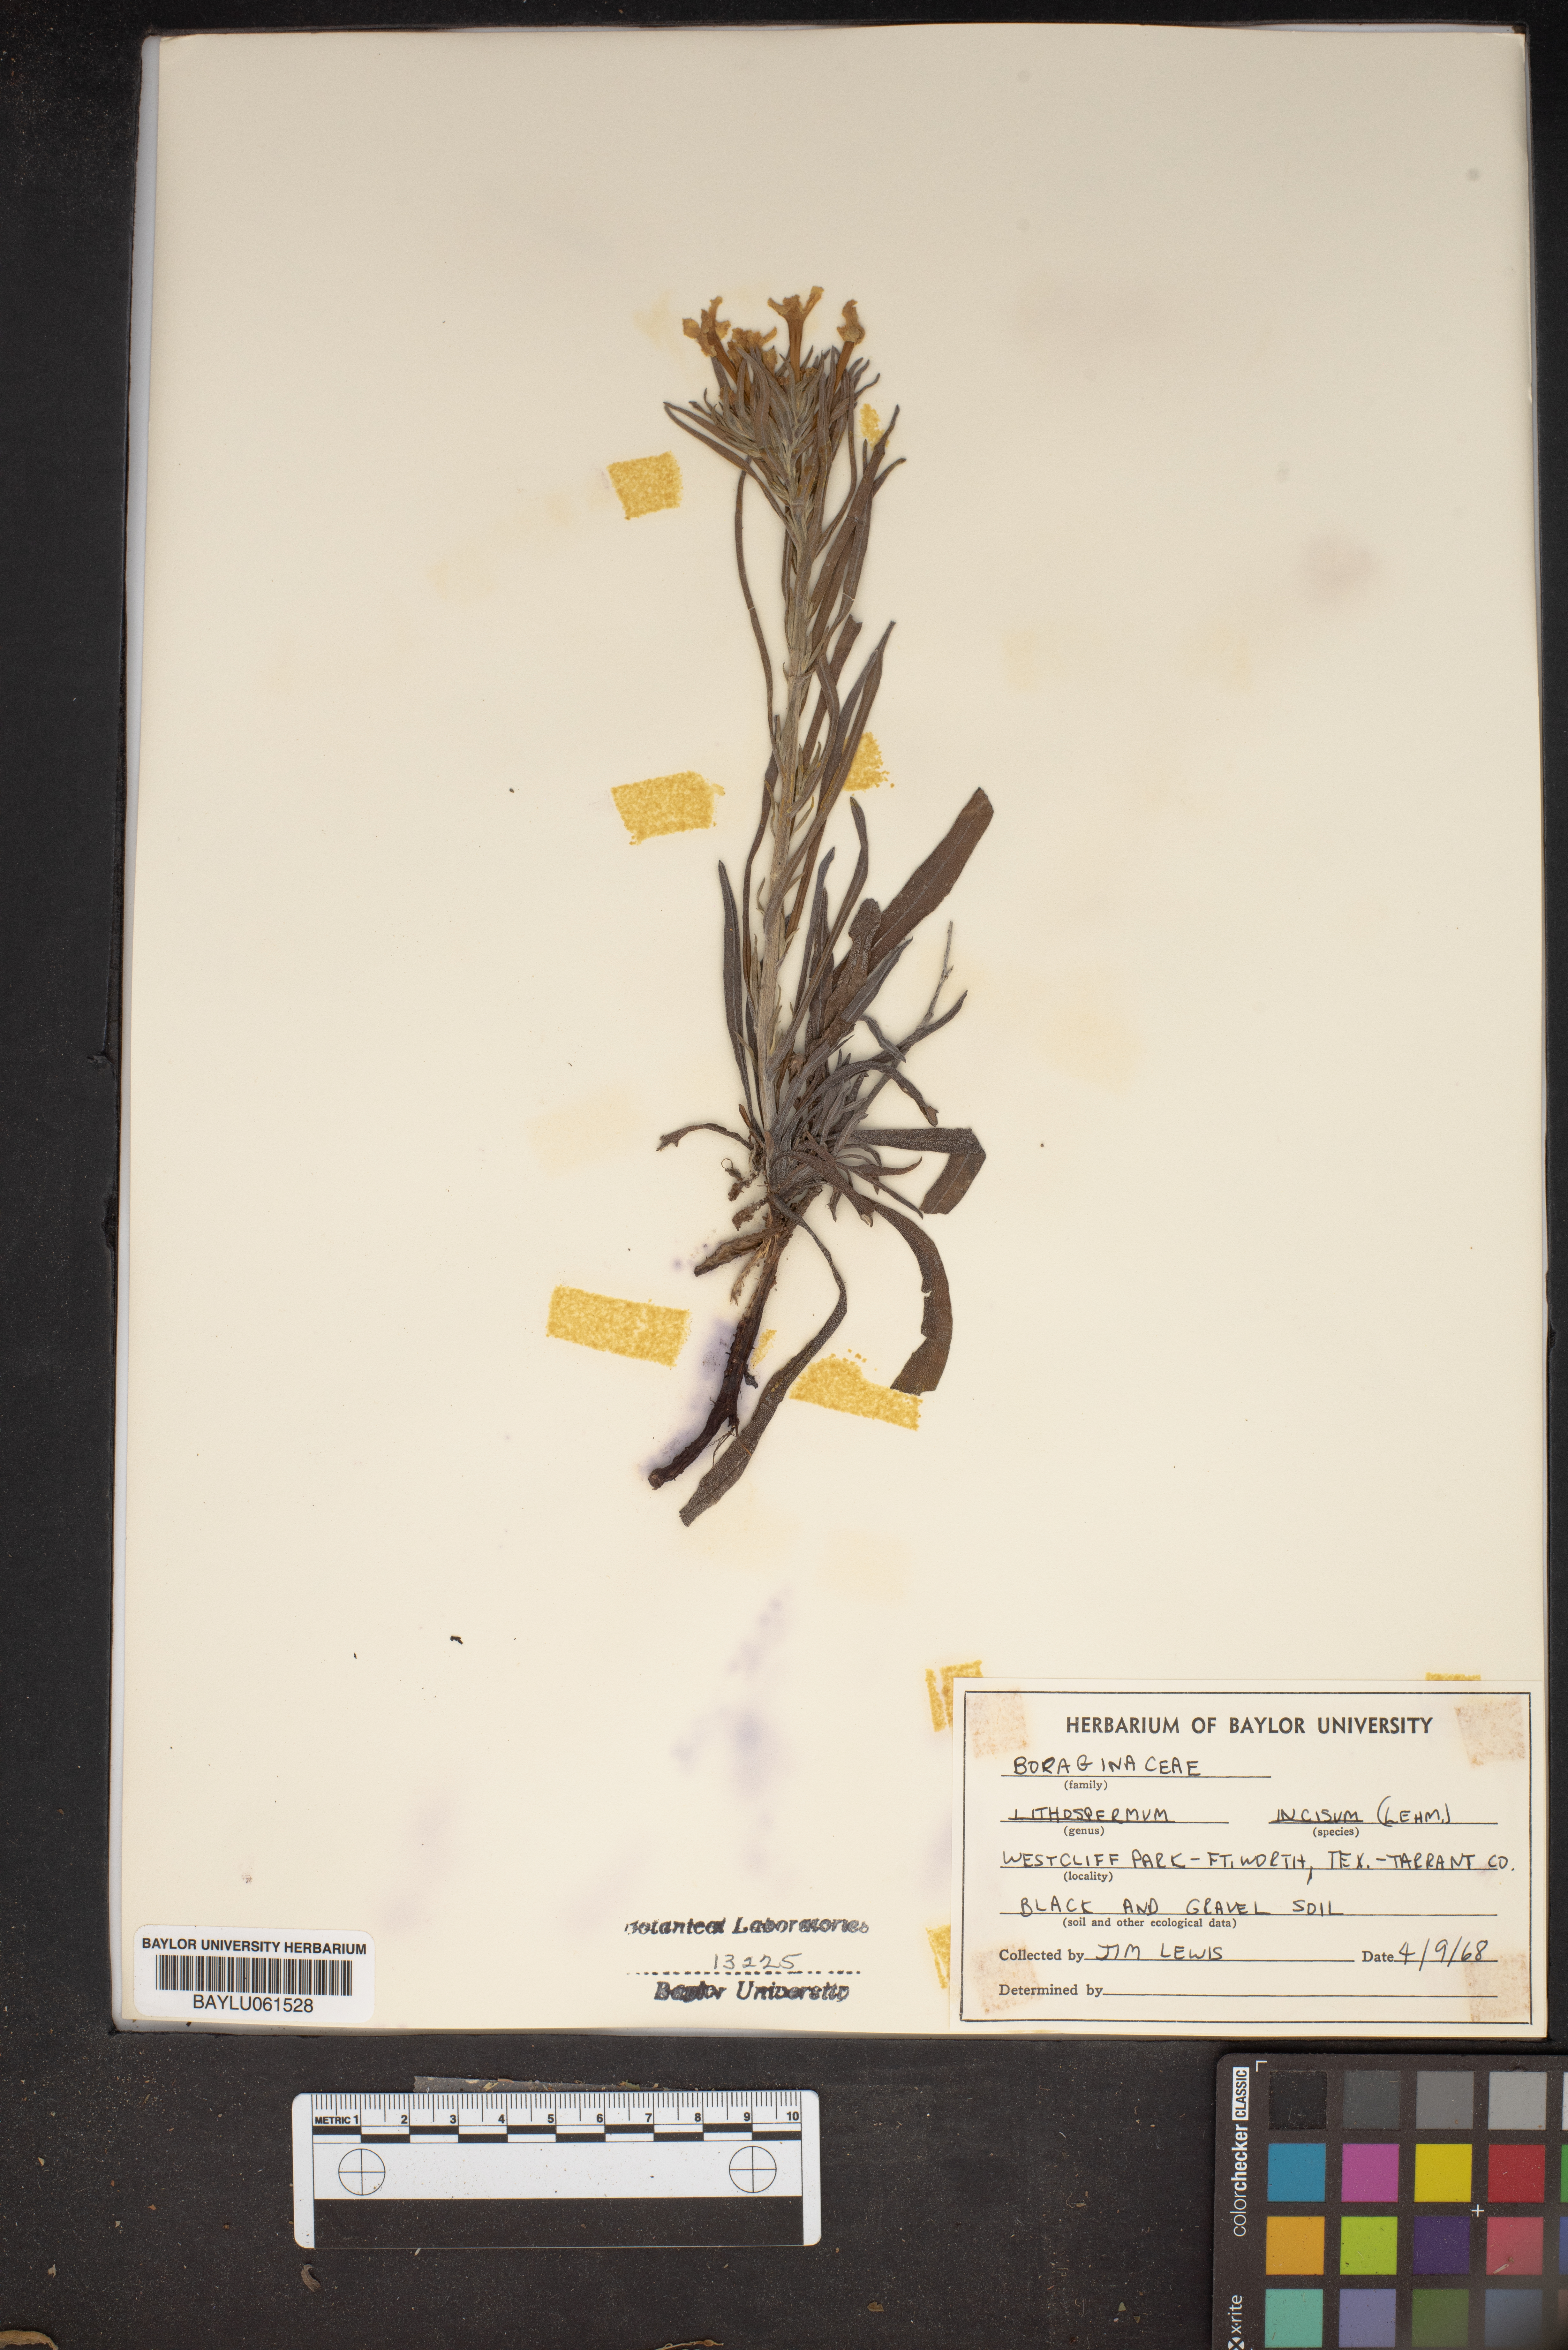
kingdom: Plantae
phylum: Tracheophyta
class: Magnoliopsida
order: Boraginales
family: Boraginaceae
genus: Lithospermum
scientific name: Lithospermum incisum
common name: Fringed gromwell
